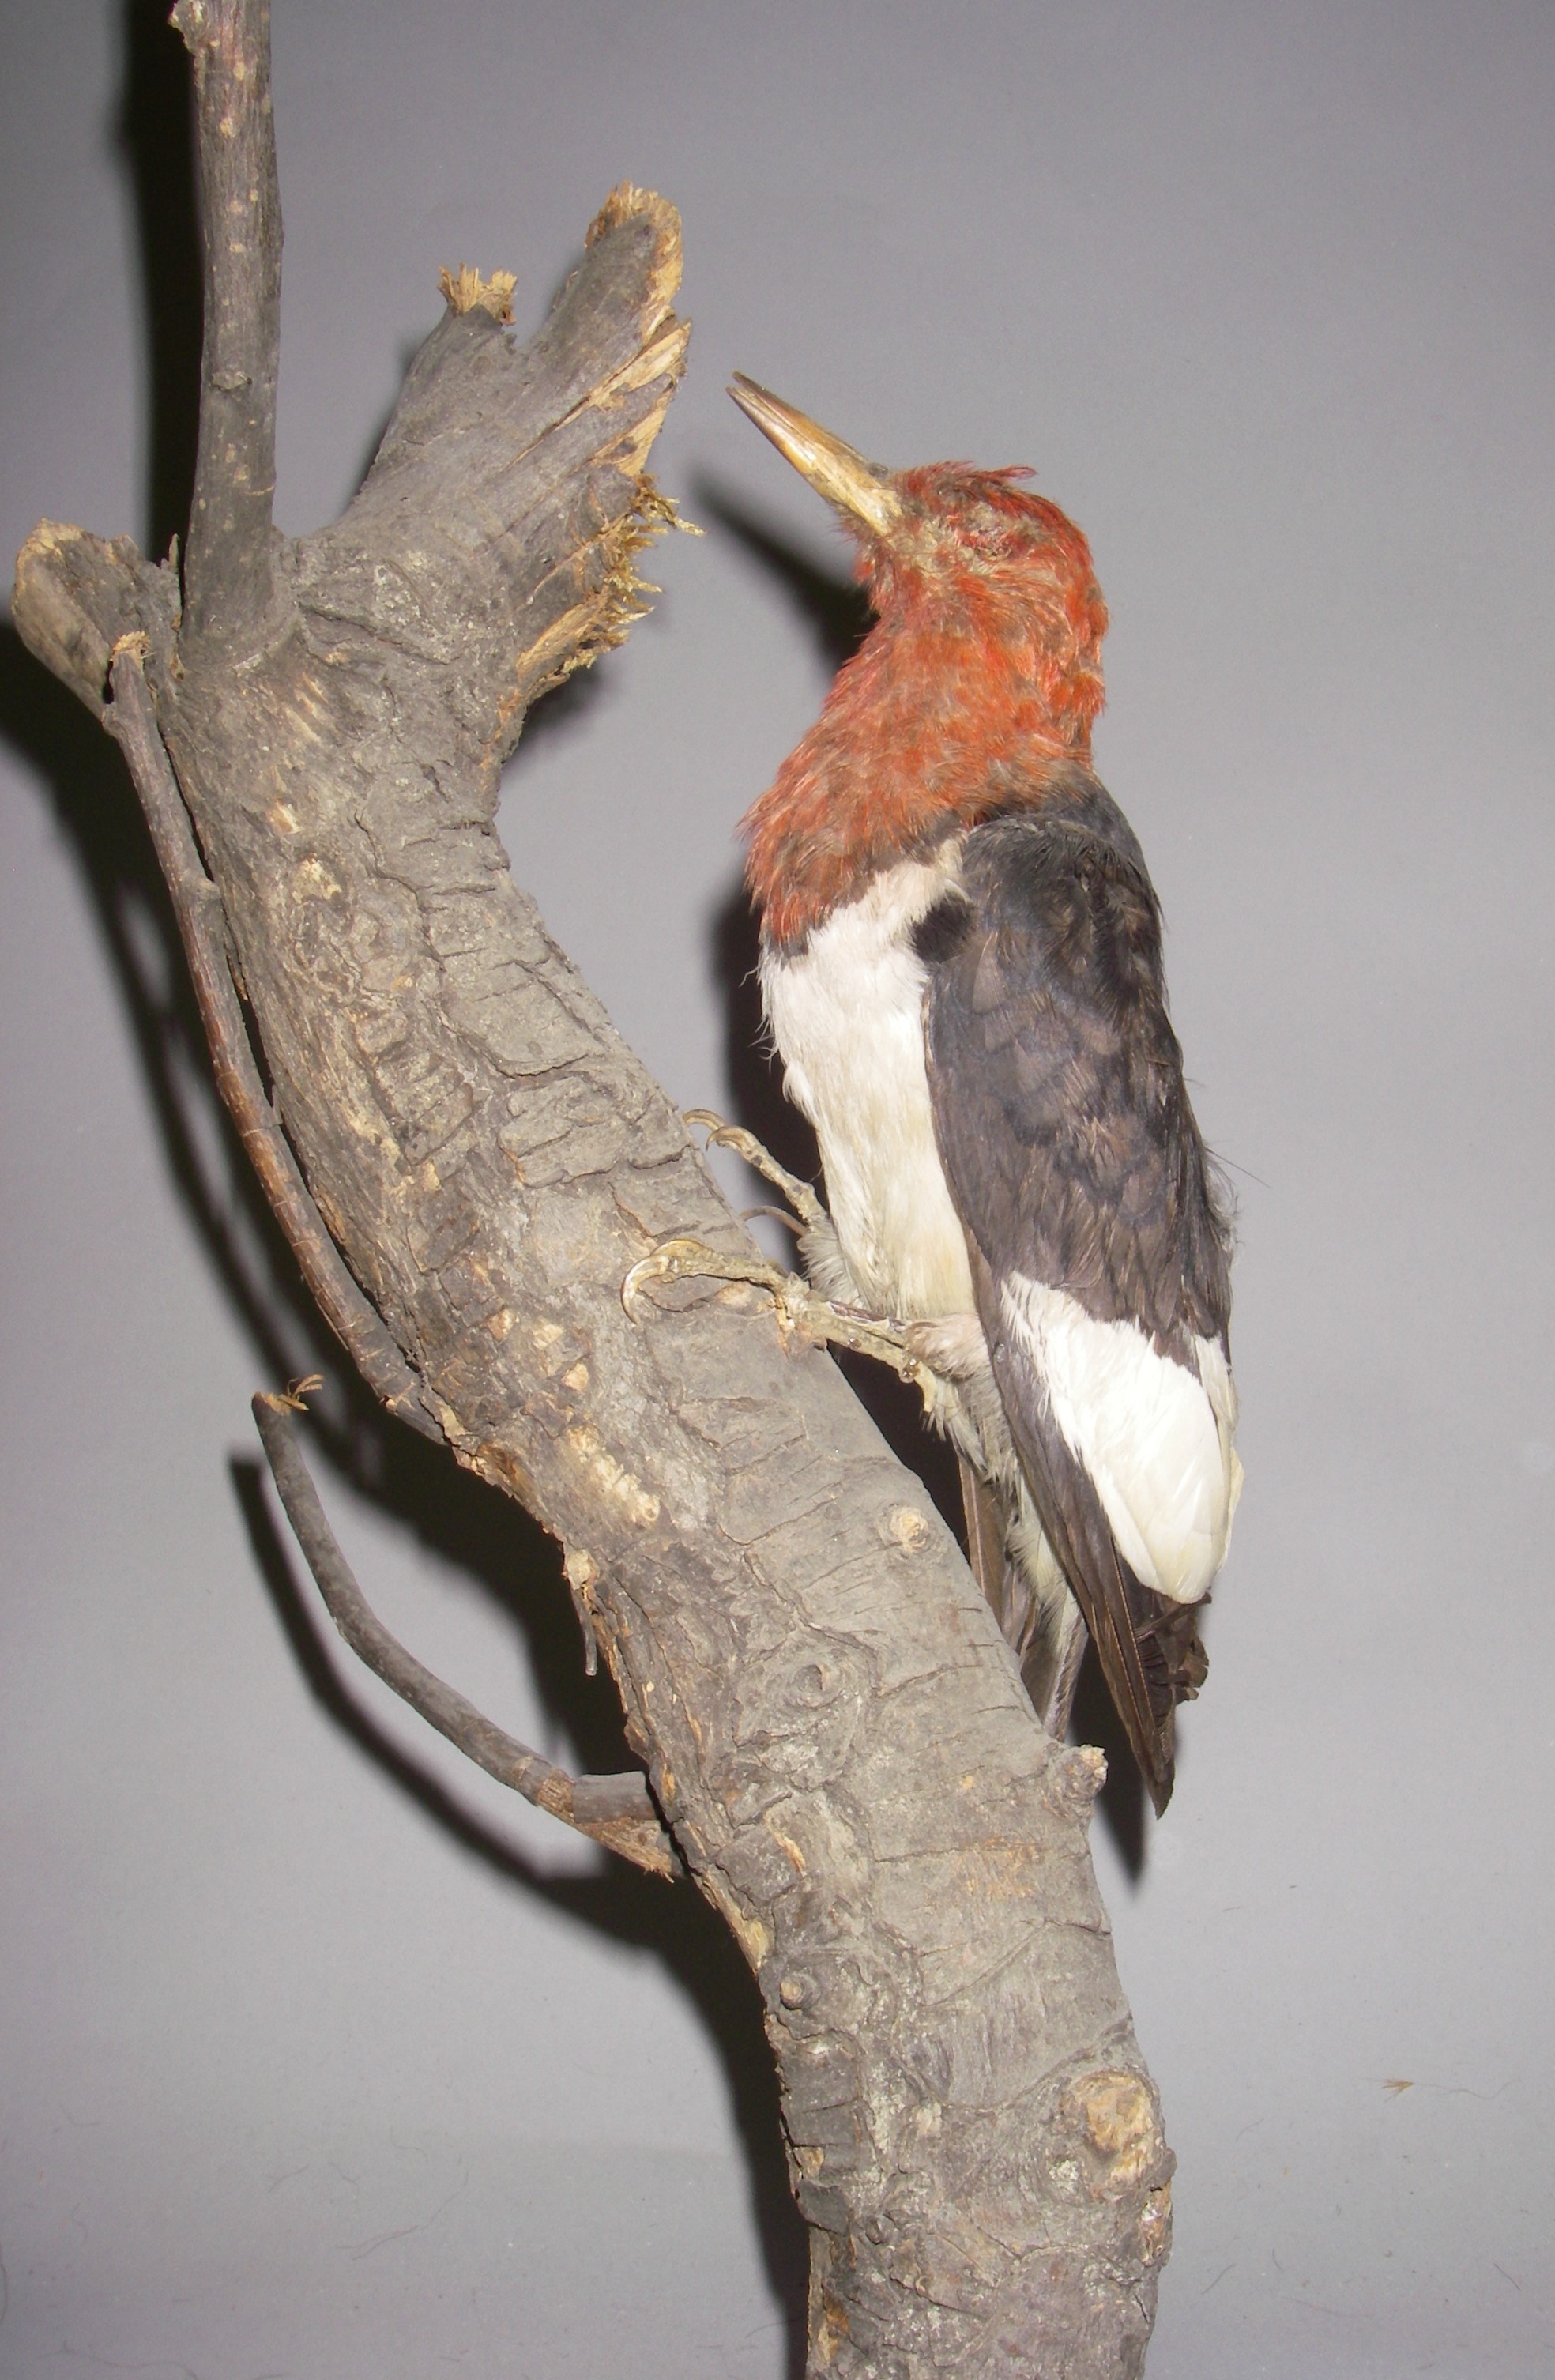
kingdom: Animalia
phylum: Chordata
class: Aves
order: Piciformes
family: Picidae
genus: Melanerpes
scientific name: Melanerpes erythrocephalus
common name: Red-headed woodpecker
